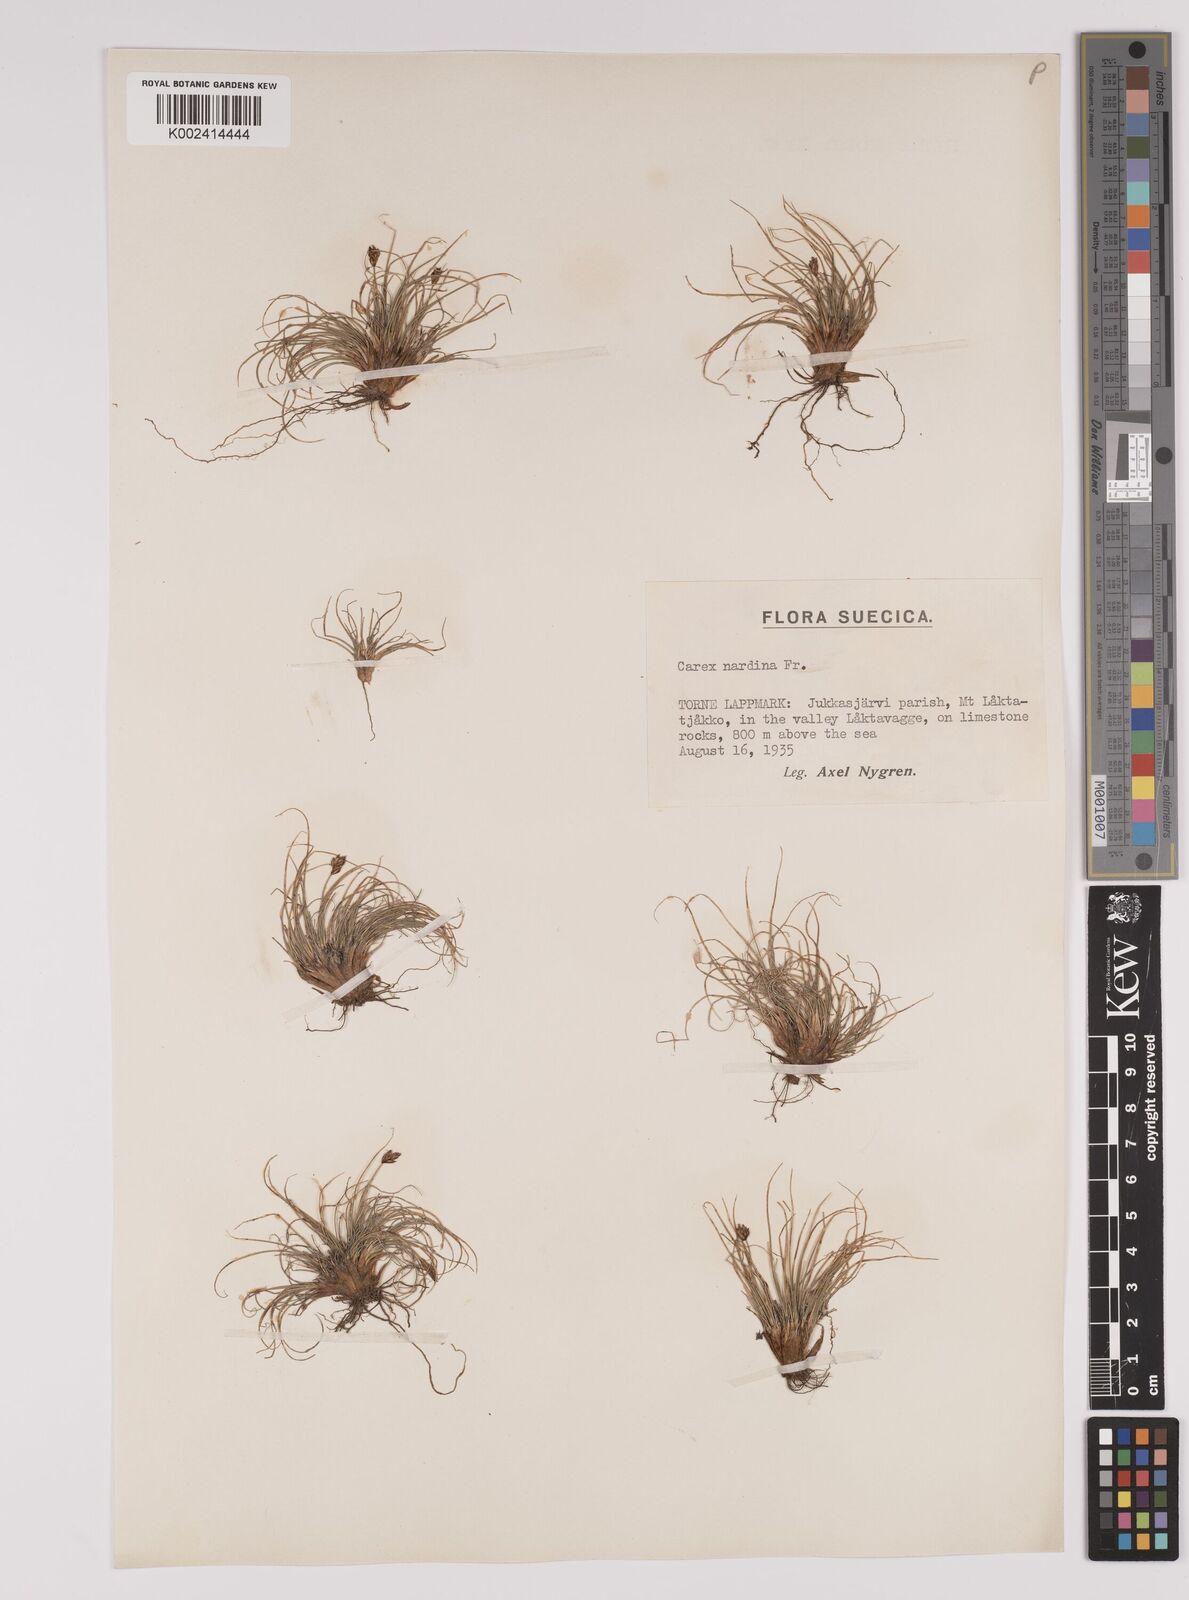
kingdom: Plantae
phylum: Tracheophyta
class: Liliopsida
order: Poales
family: Cyperaceae
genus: Carex
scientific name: Carex nardina
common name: Nard sedge
